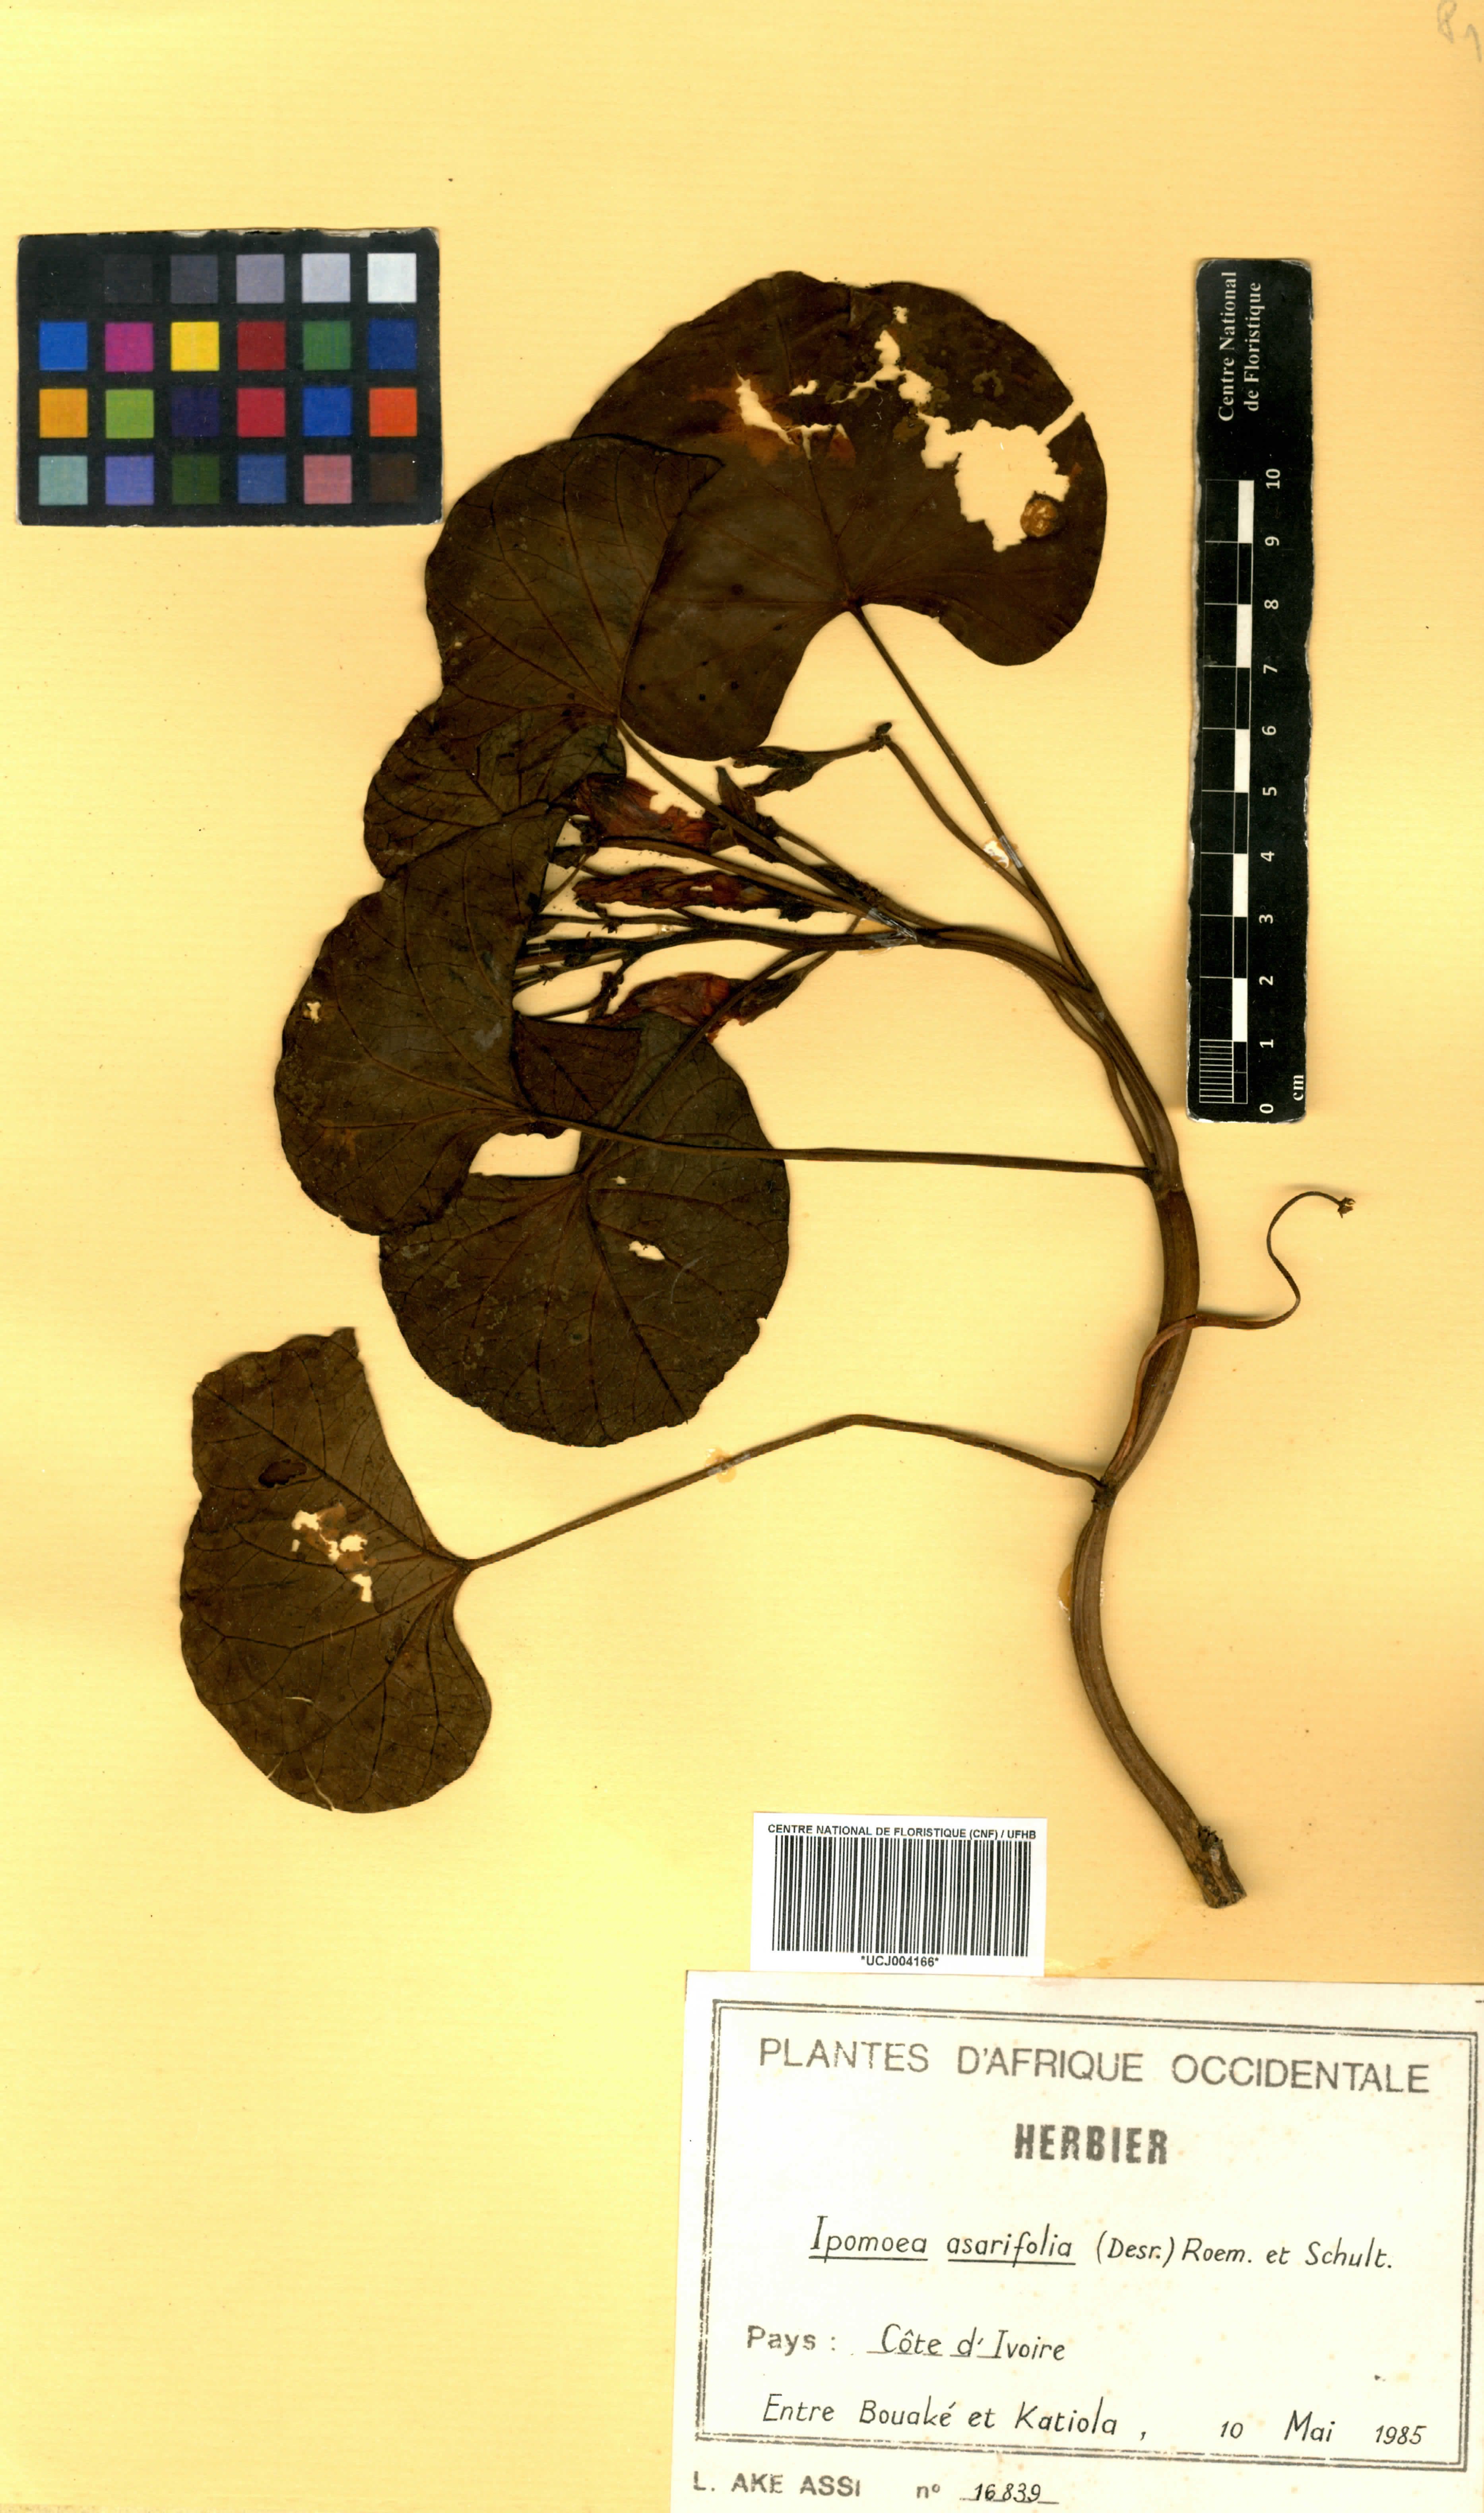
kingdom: Plantae
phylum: Tracheophyta
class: Magnoliopsida
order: Solanales
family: Convolvulaceae
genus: Ipomoea
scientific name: Ipomoea asarifolia
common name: Ginger-leaf morning-glory
